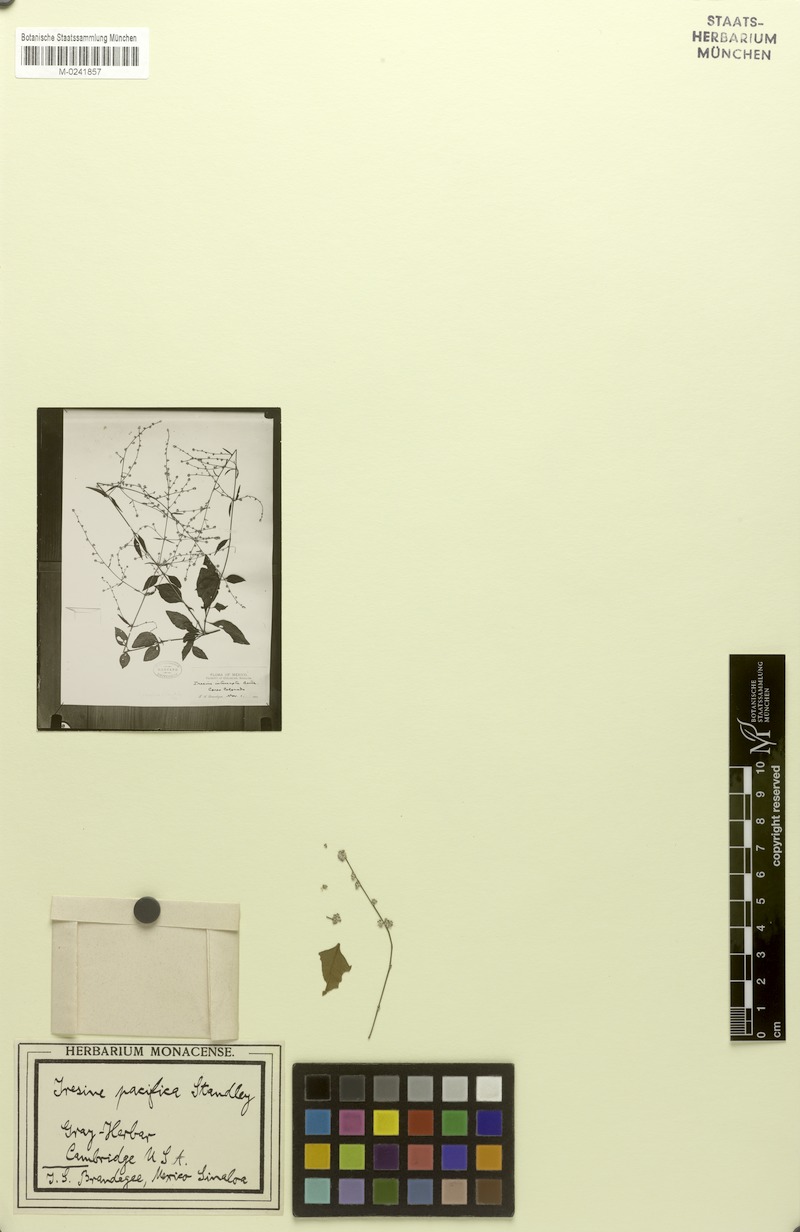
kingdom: Plantae
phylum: Tracheophyta
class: Magnoliopsida
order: Caryophyllales
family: Amaranthaceae
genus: Iresine
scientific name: Iresine pacifica
